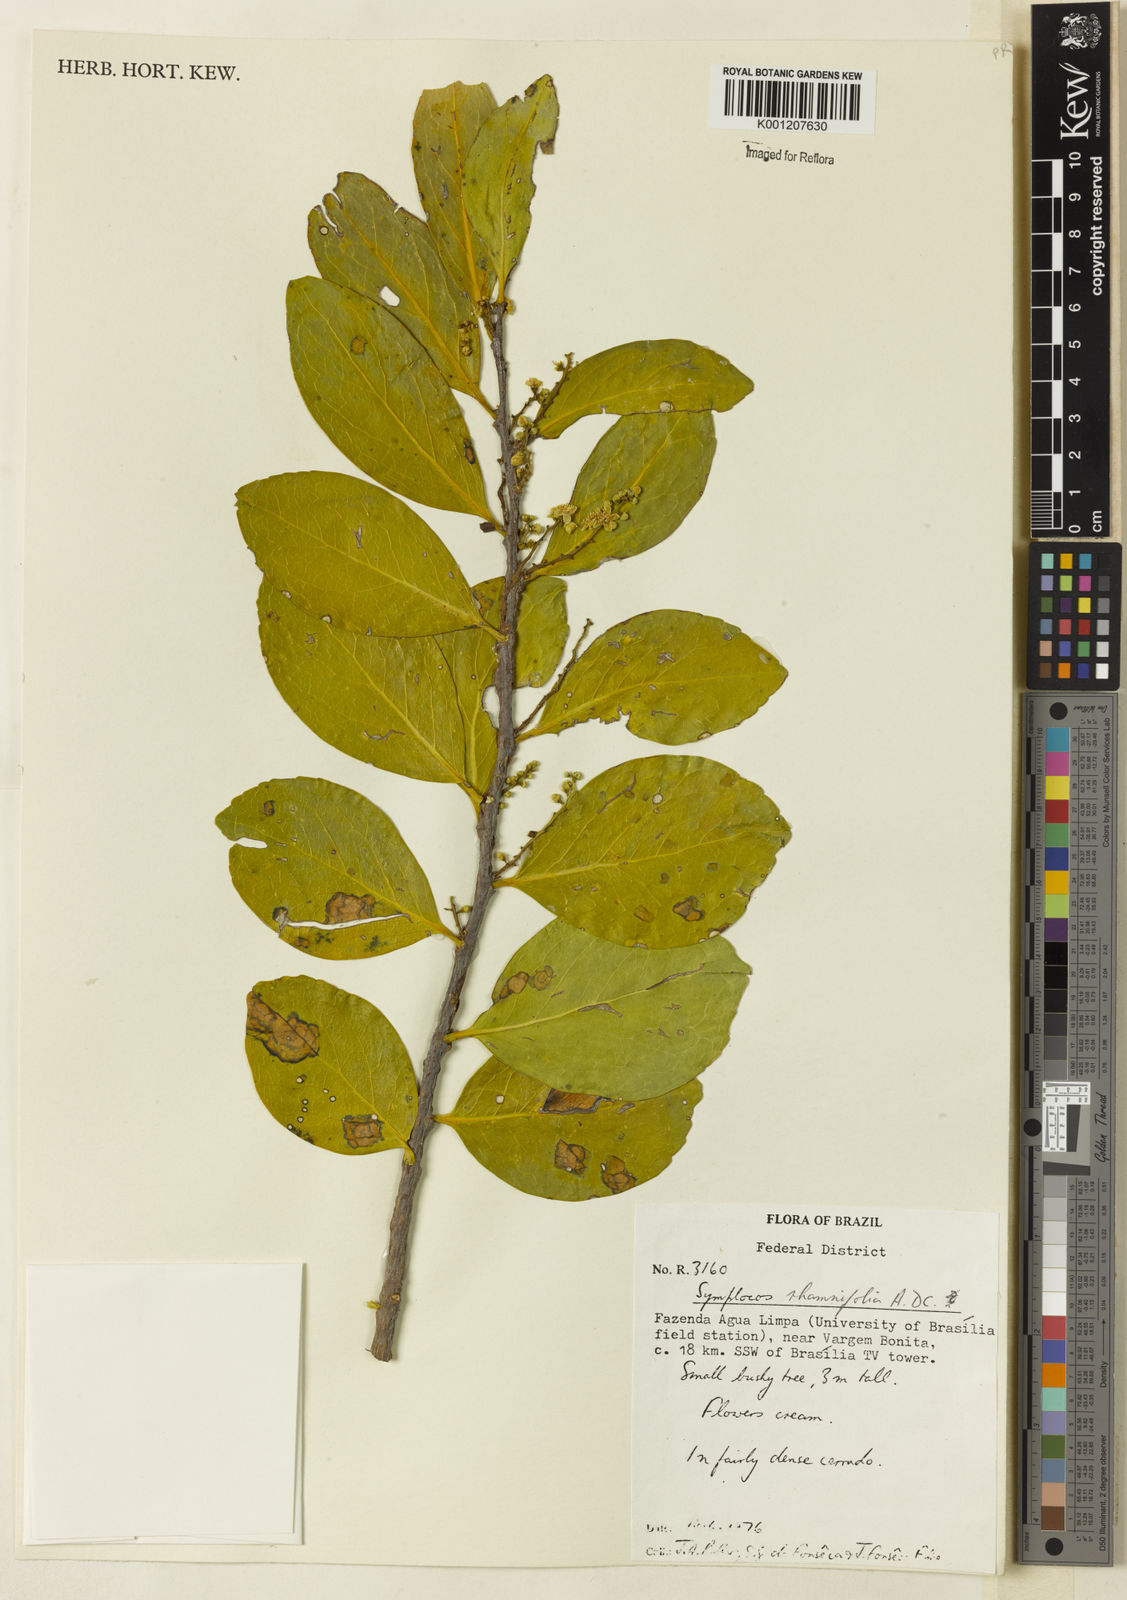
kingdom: Plantae
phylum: Tracheophyta
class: Magnoliopsida
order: Ericales
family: Symplocaceae
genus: Symplocos
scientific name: Symplocos rhamnifolia
